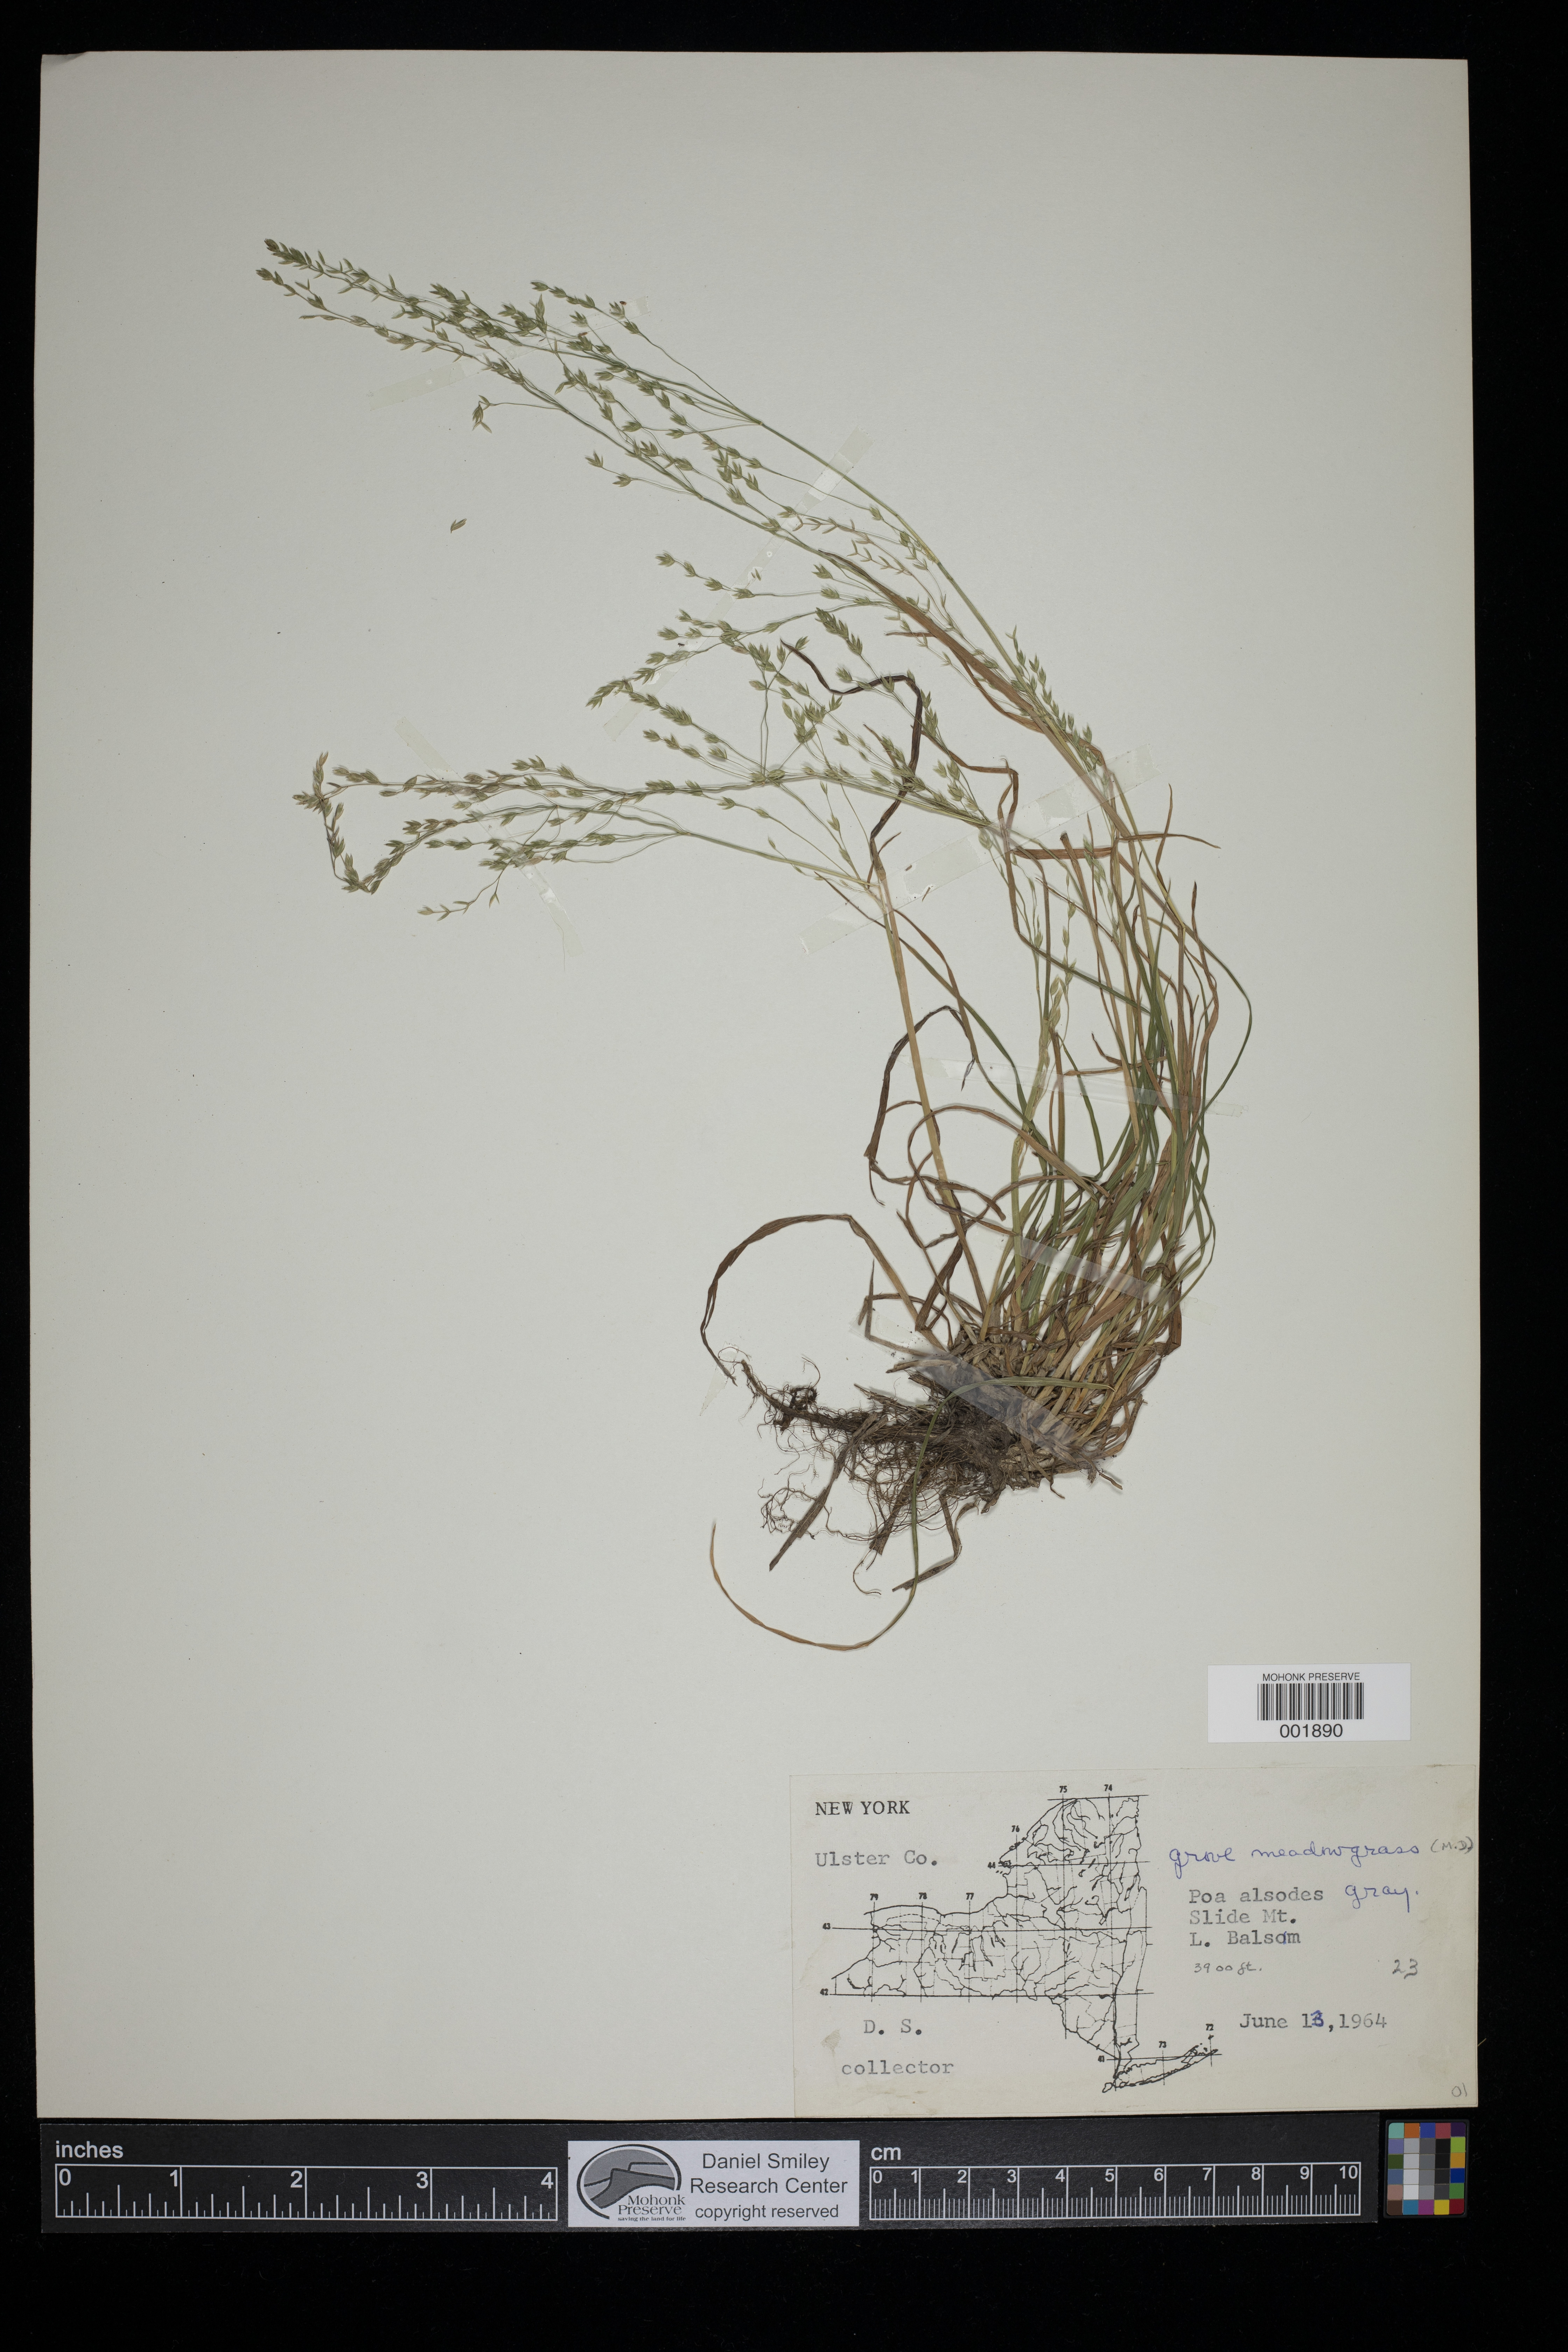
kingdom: Plantae
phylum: Tracheophyta
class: Liliopsida
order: Poales
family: Poaceae
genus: Poa
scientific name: Poa alsodes
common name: Grove bluegrass
